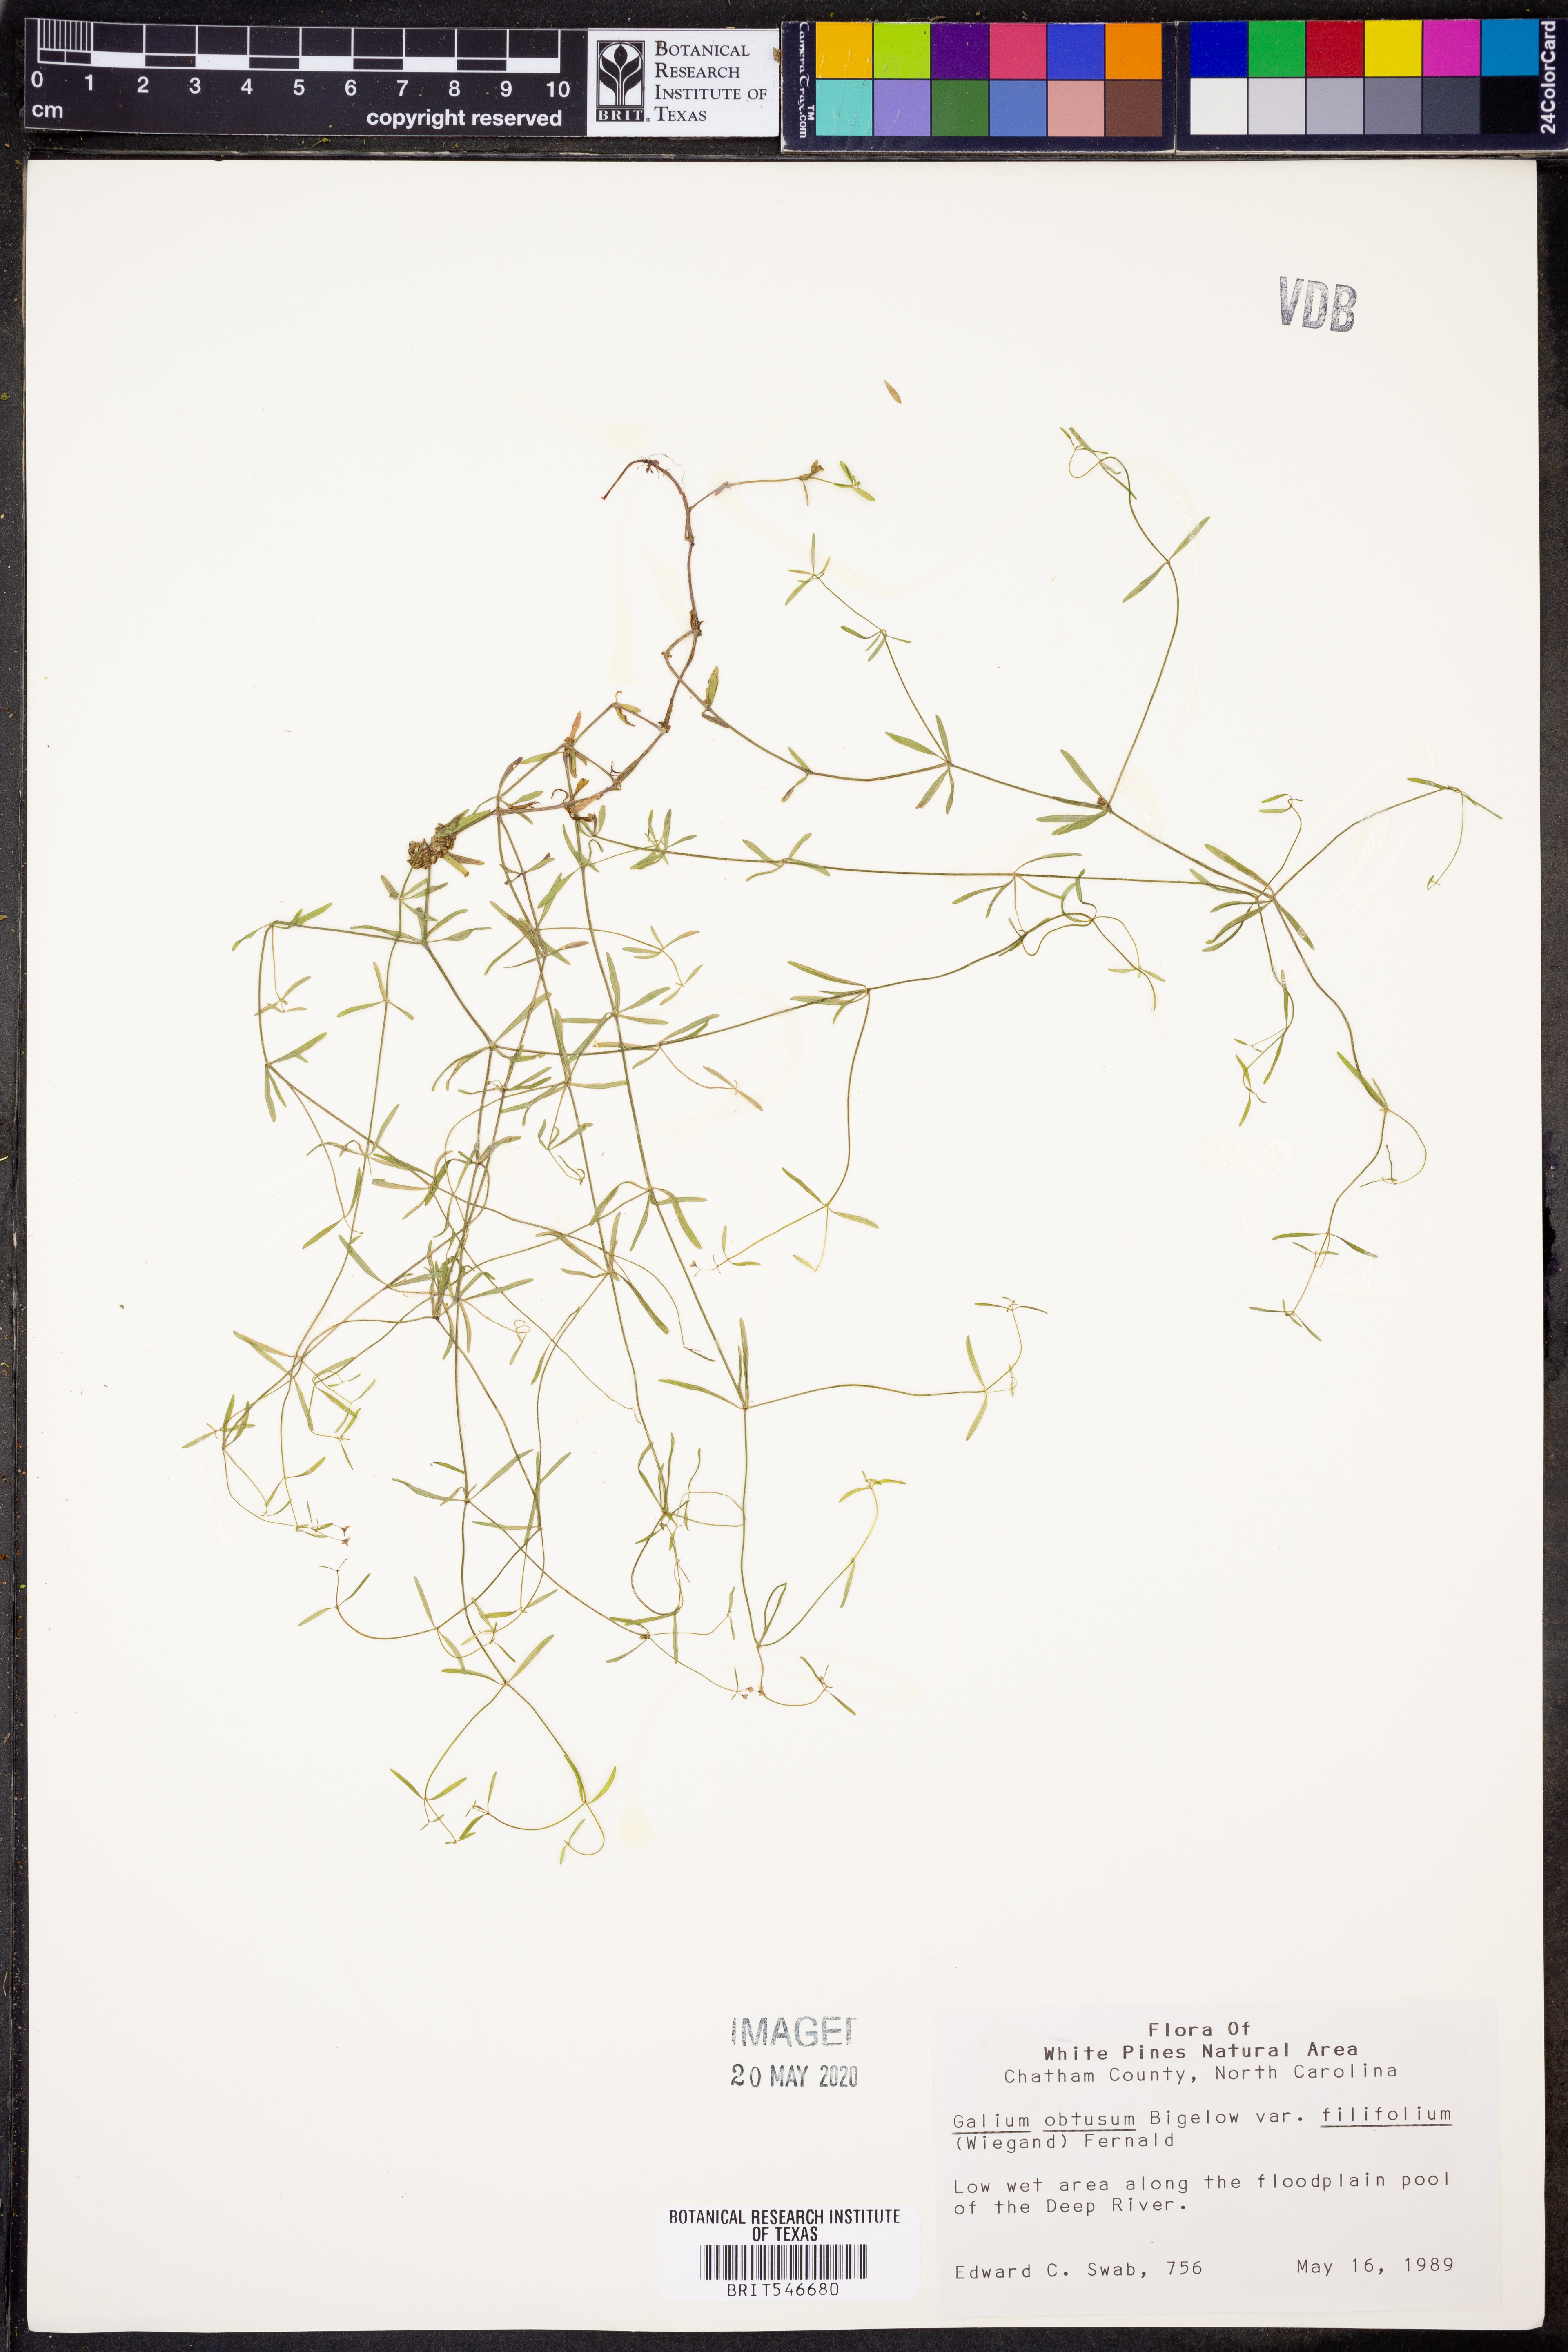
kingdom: Plantae
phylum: Tracheophyta
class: Magnoliopsida
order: Gentianales
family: Rubiaceae
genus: Galium
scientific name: Galium obtusum
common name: Blunt-leaved bedstraw
